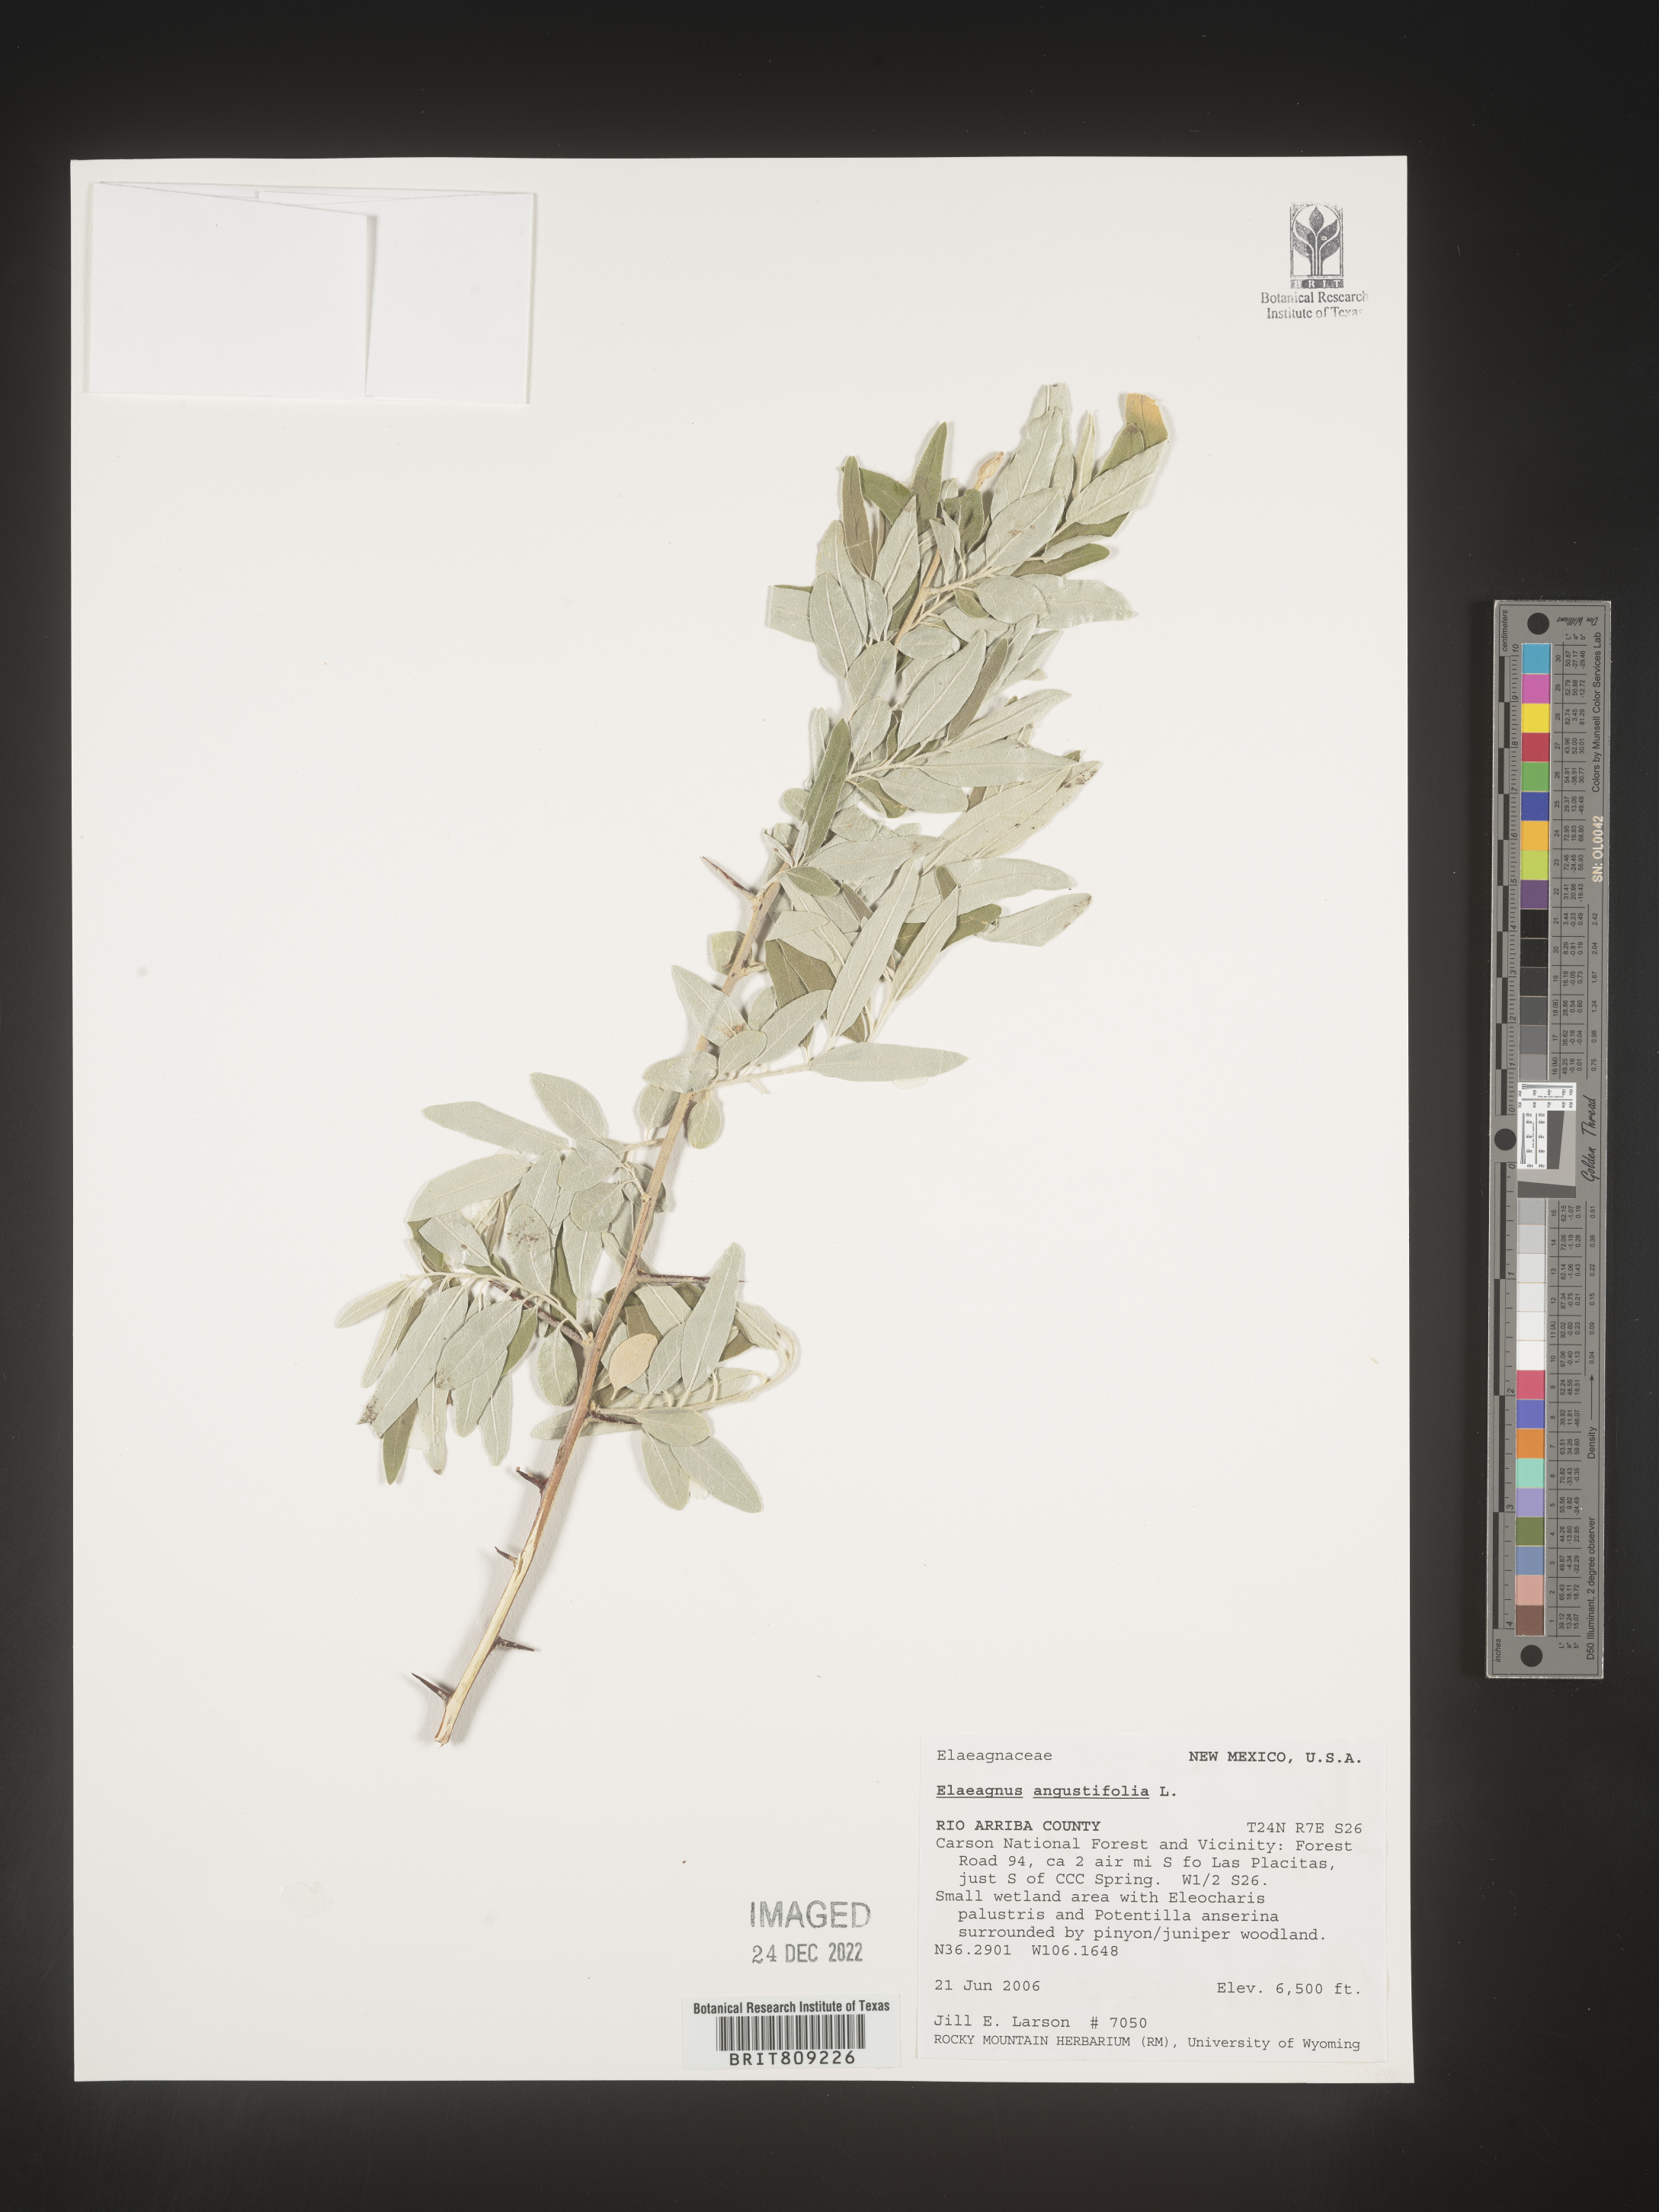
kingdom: Plantae
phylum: Tracheophyta
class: Magnoliopsida
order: Rosales
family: Elaeagnaceae
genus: Elaeagnus
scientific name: Elaeagnus angustifolia
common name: Russian olive
